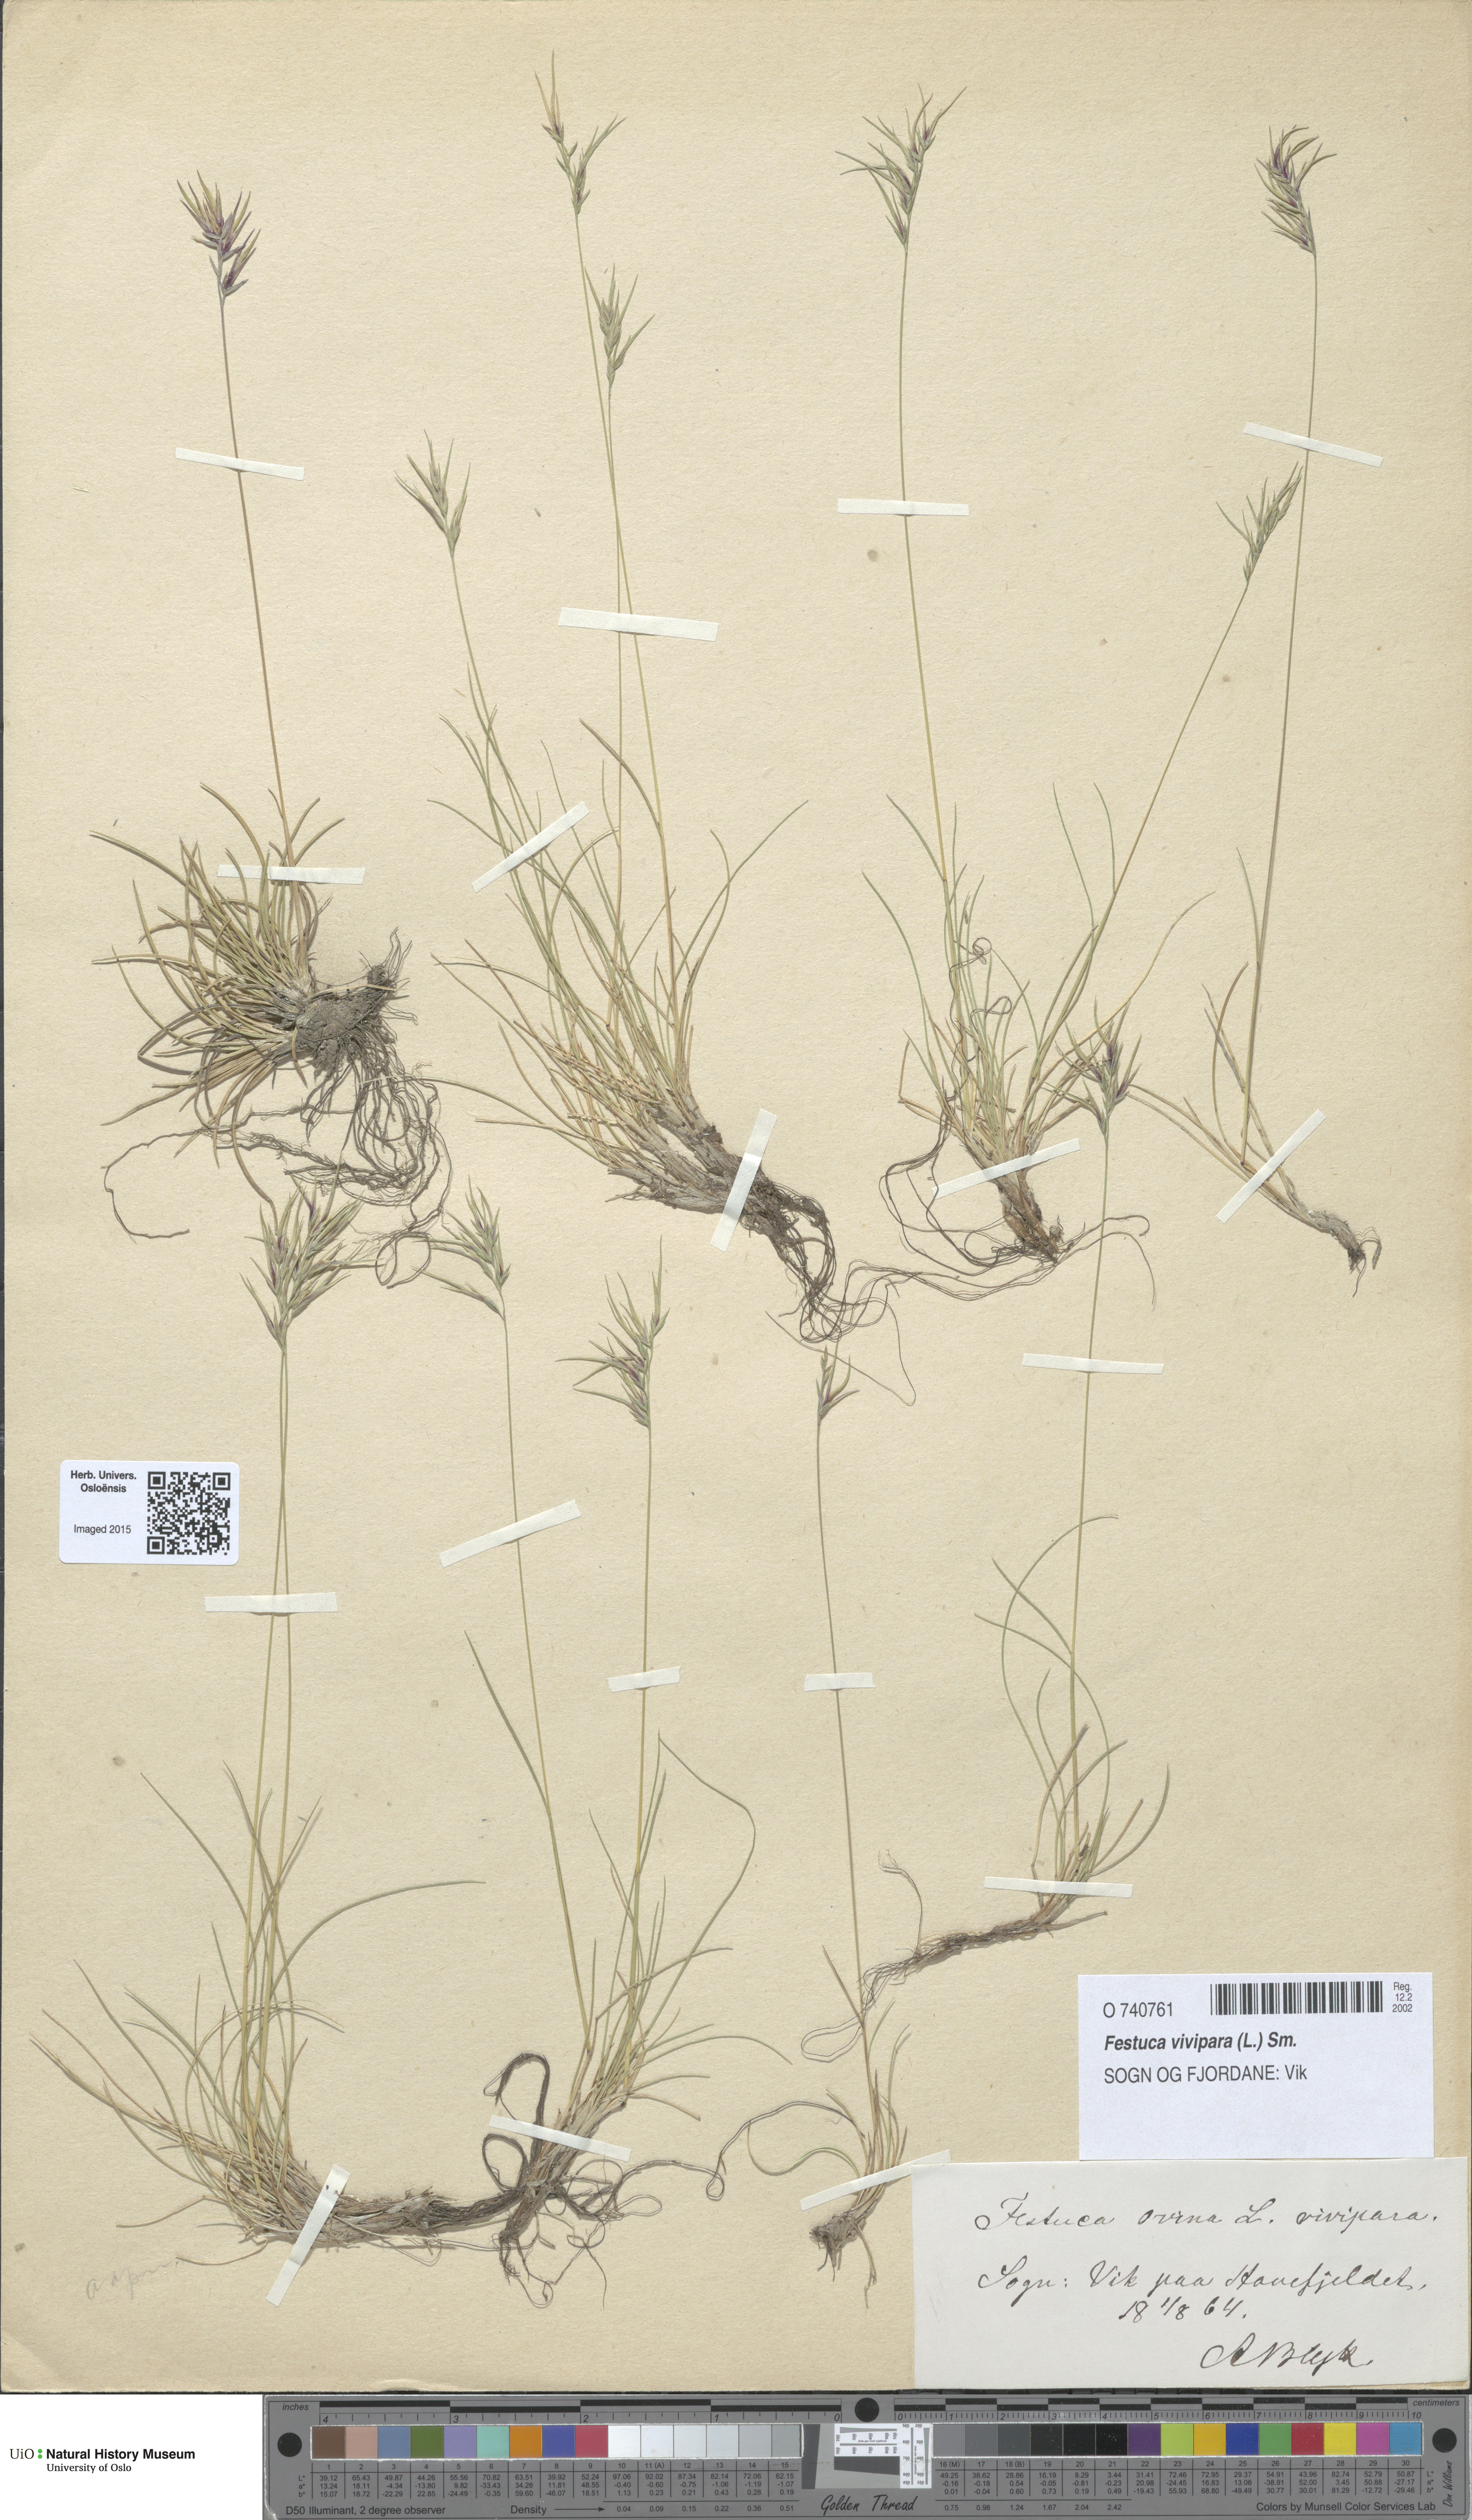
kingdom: Plantae
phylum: Tracheophyta
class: Liliopsida
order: Poales
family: Poaceae
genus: Festuca
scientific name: Festuca vivipara
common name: Viviparous sheep's-fescue
